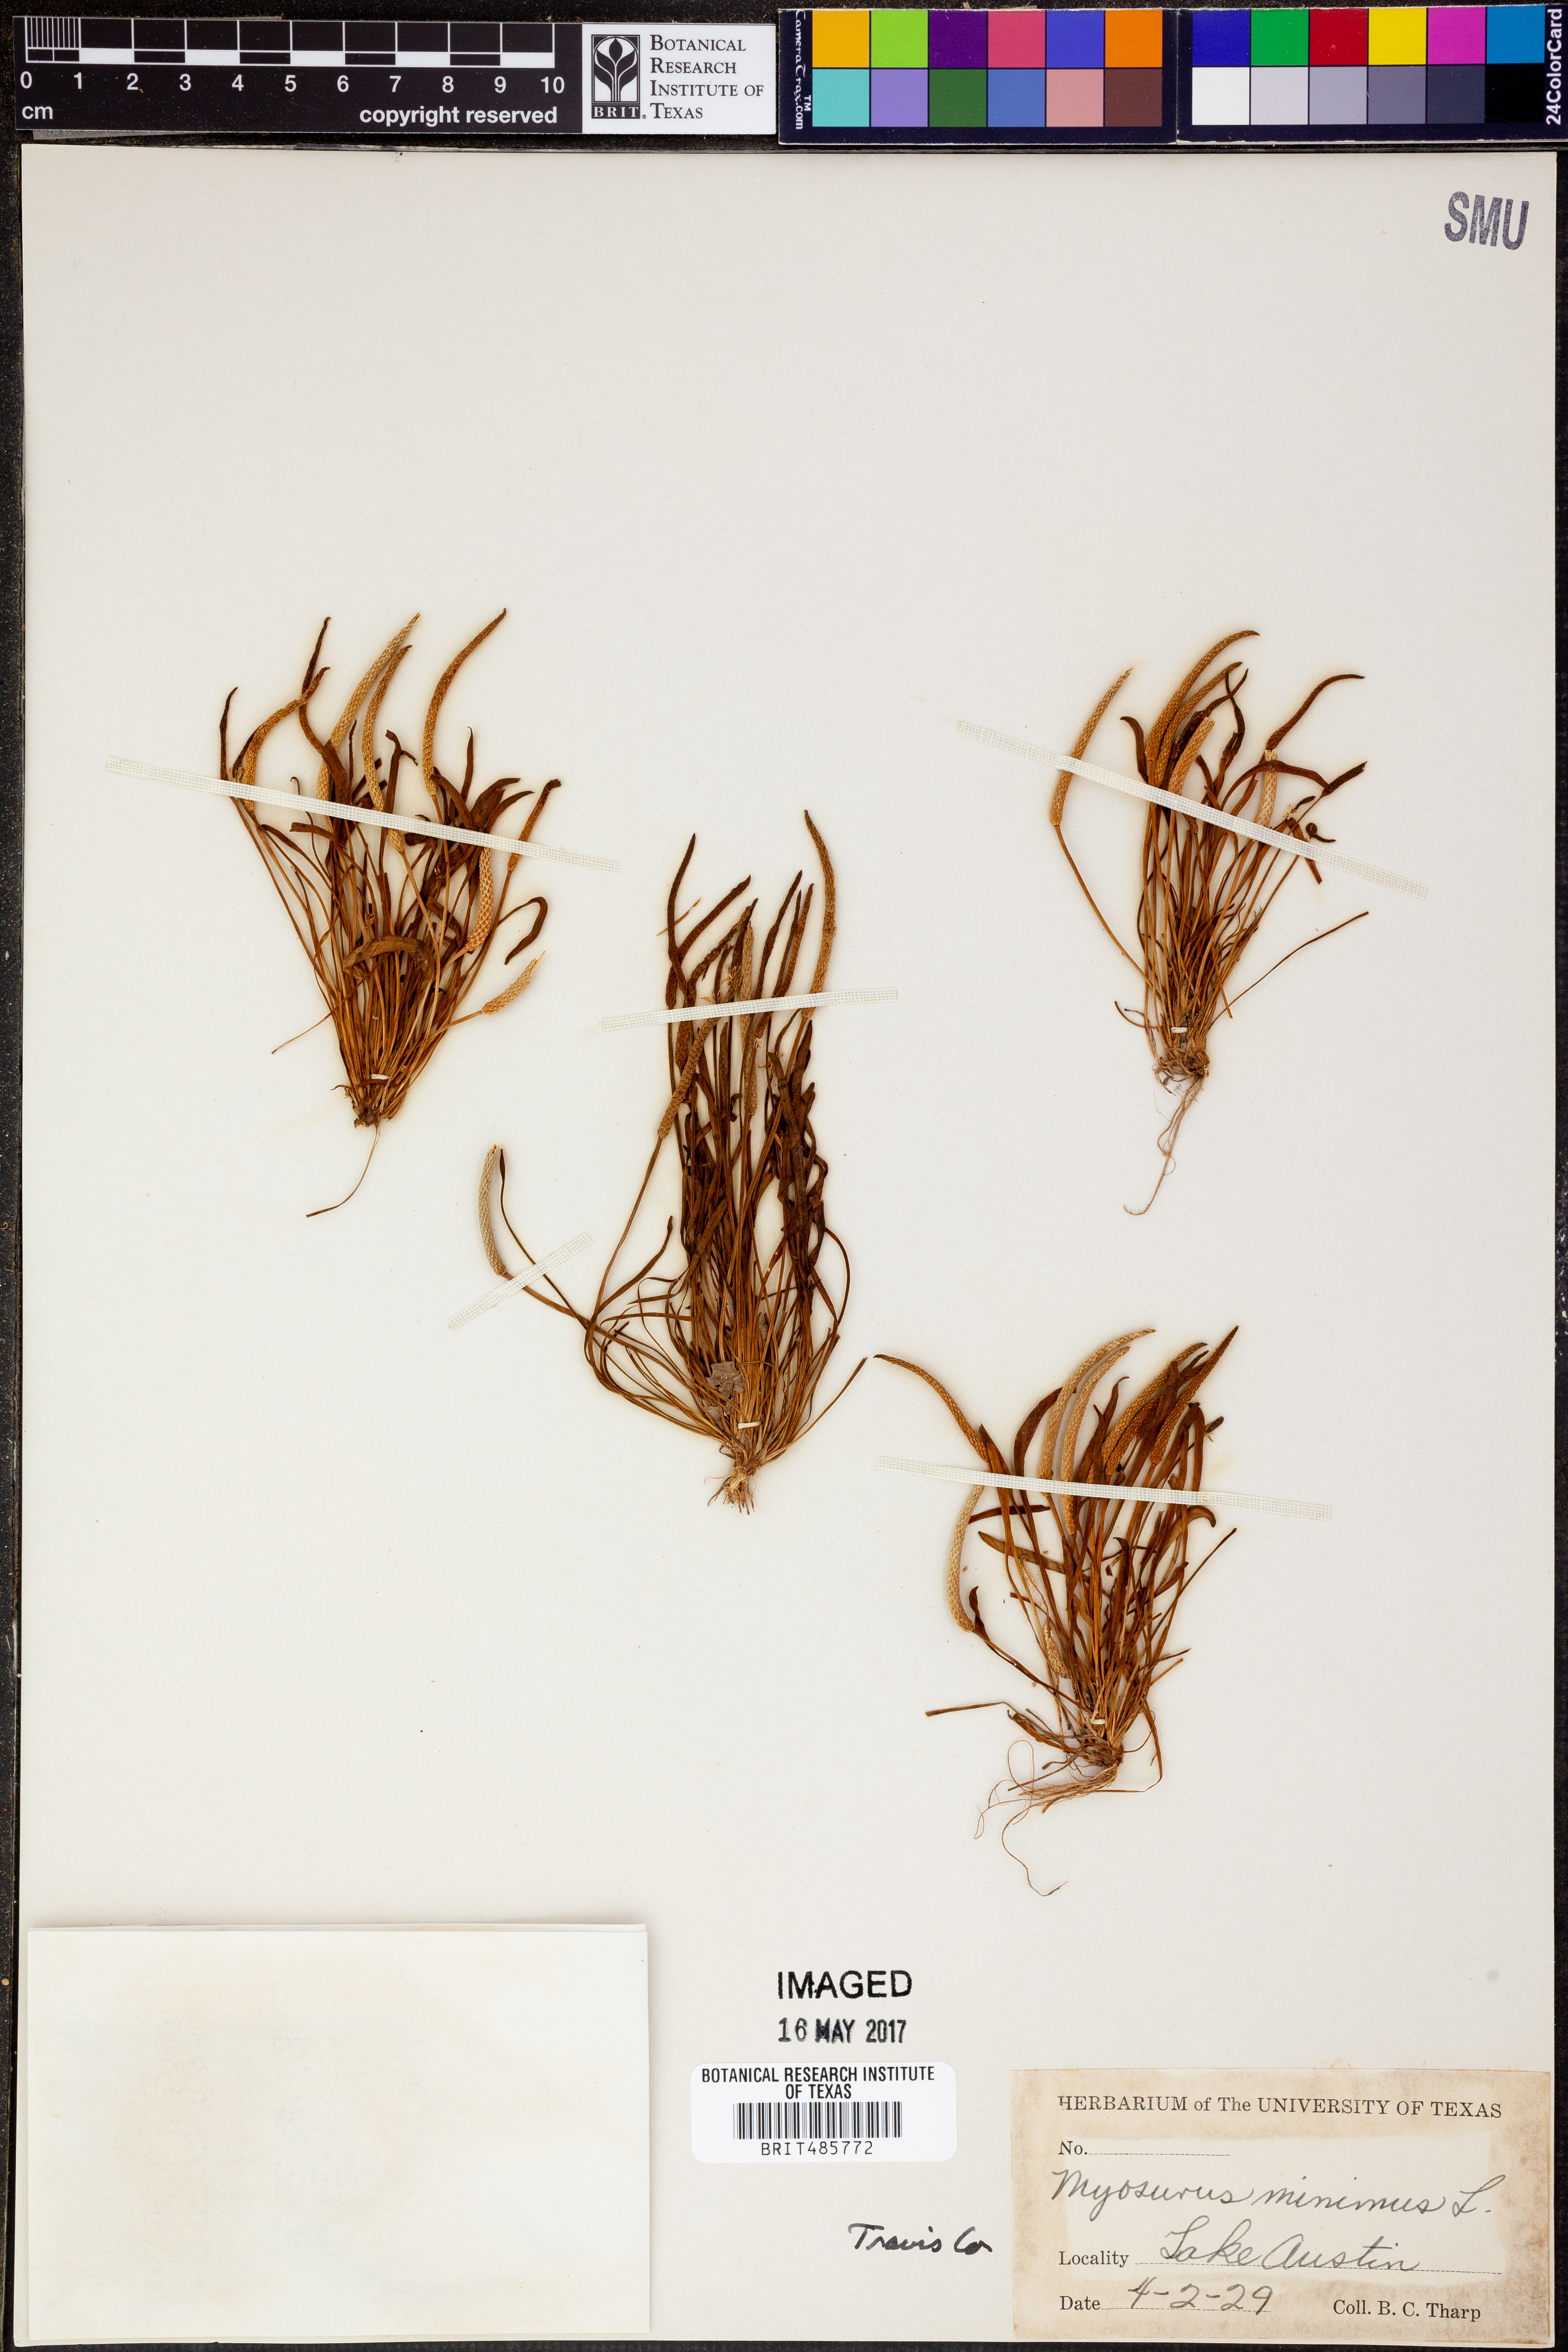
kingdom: Plantae
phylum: Tracheophyta
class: Magnoliopsida
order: Ranunculales
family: Ranunculaceae
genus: Myosurus
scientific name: Myosurus minimus
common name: Mousetail
